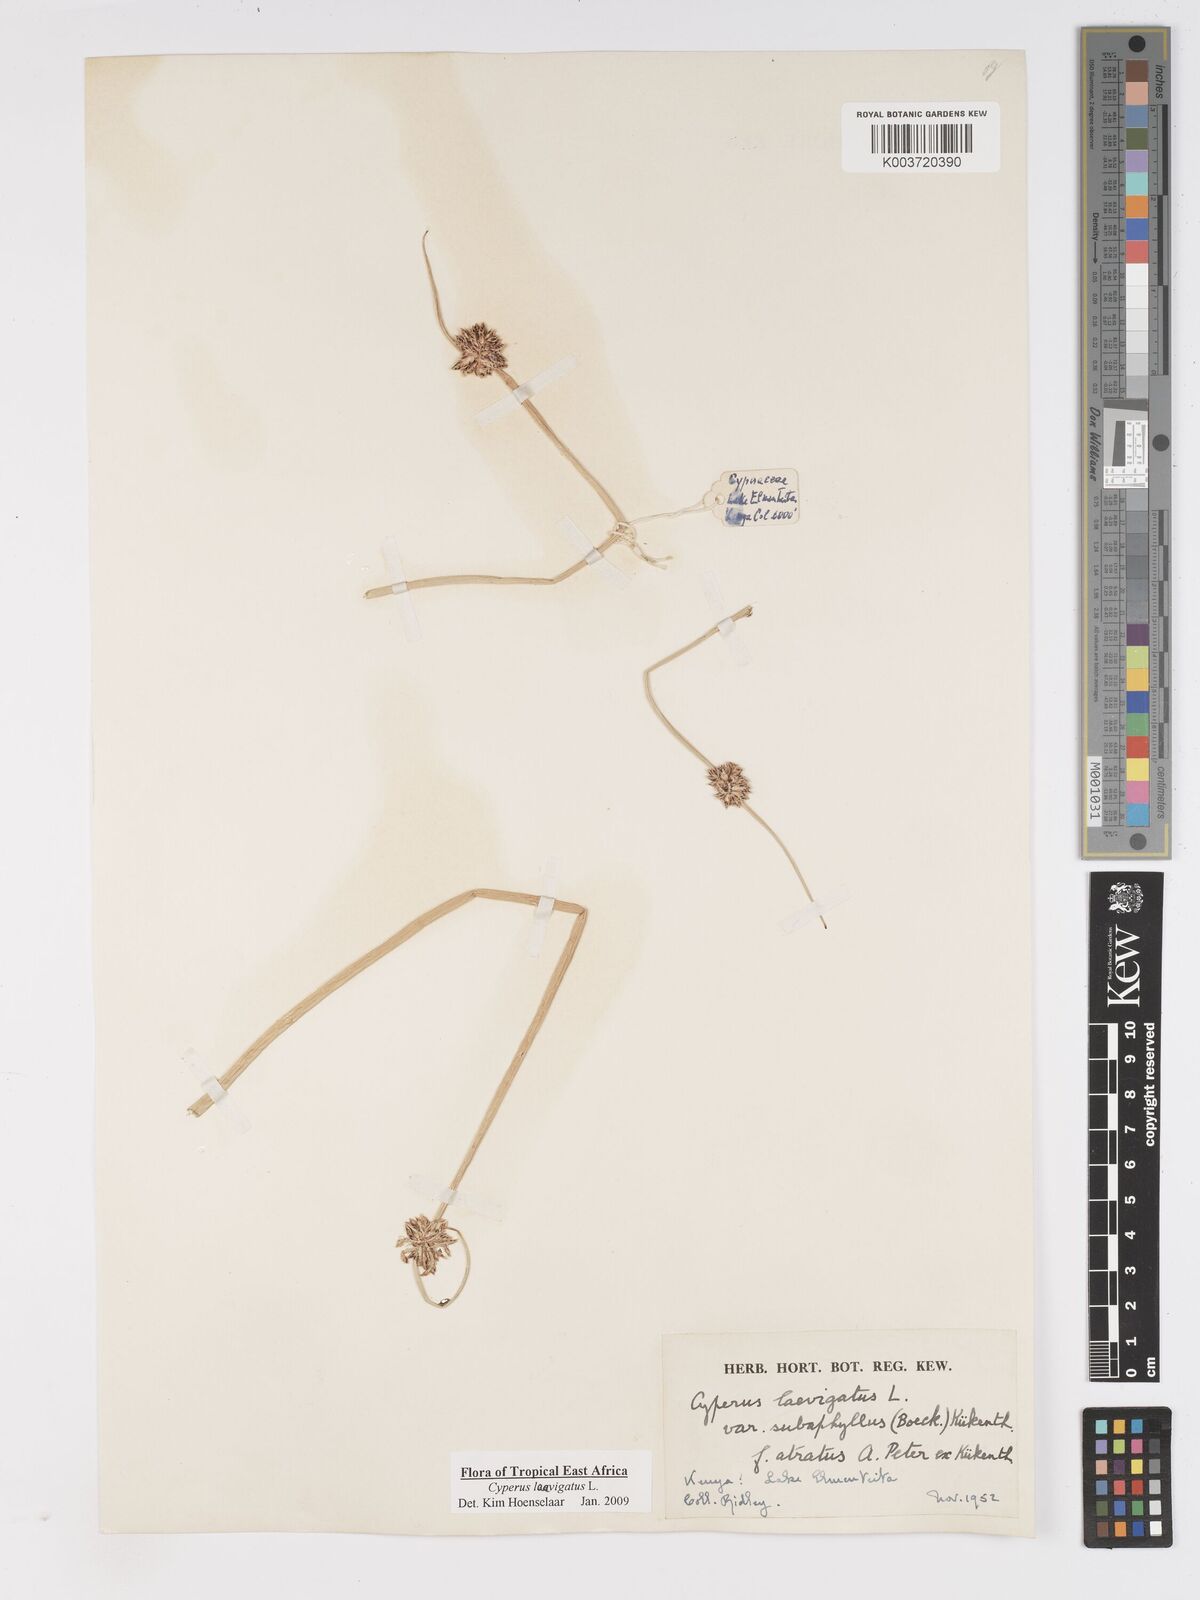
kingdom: Plantae
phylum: Tracheophyta
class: Liliopsida
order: Poales
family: Cyperaceae
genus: Cyperus
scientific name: Cyperus laevigatus
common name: Smooth flat sedge
